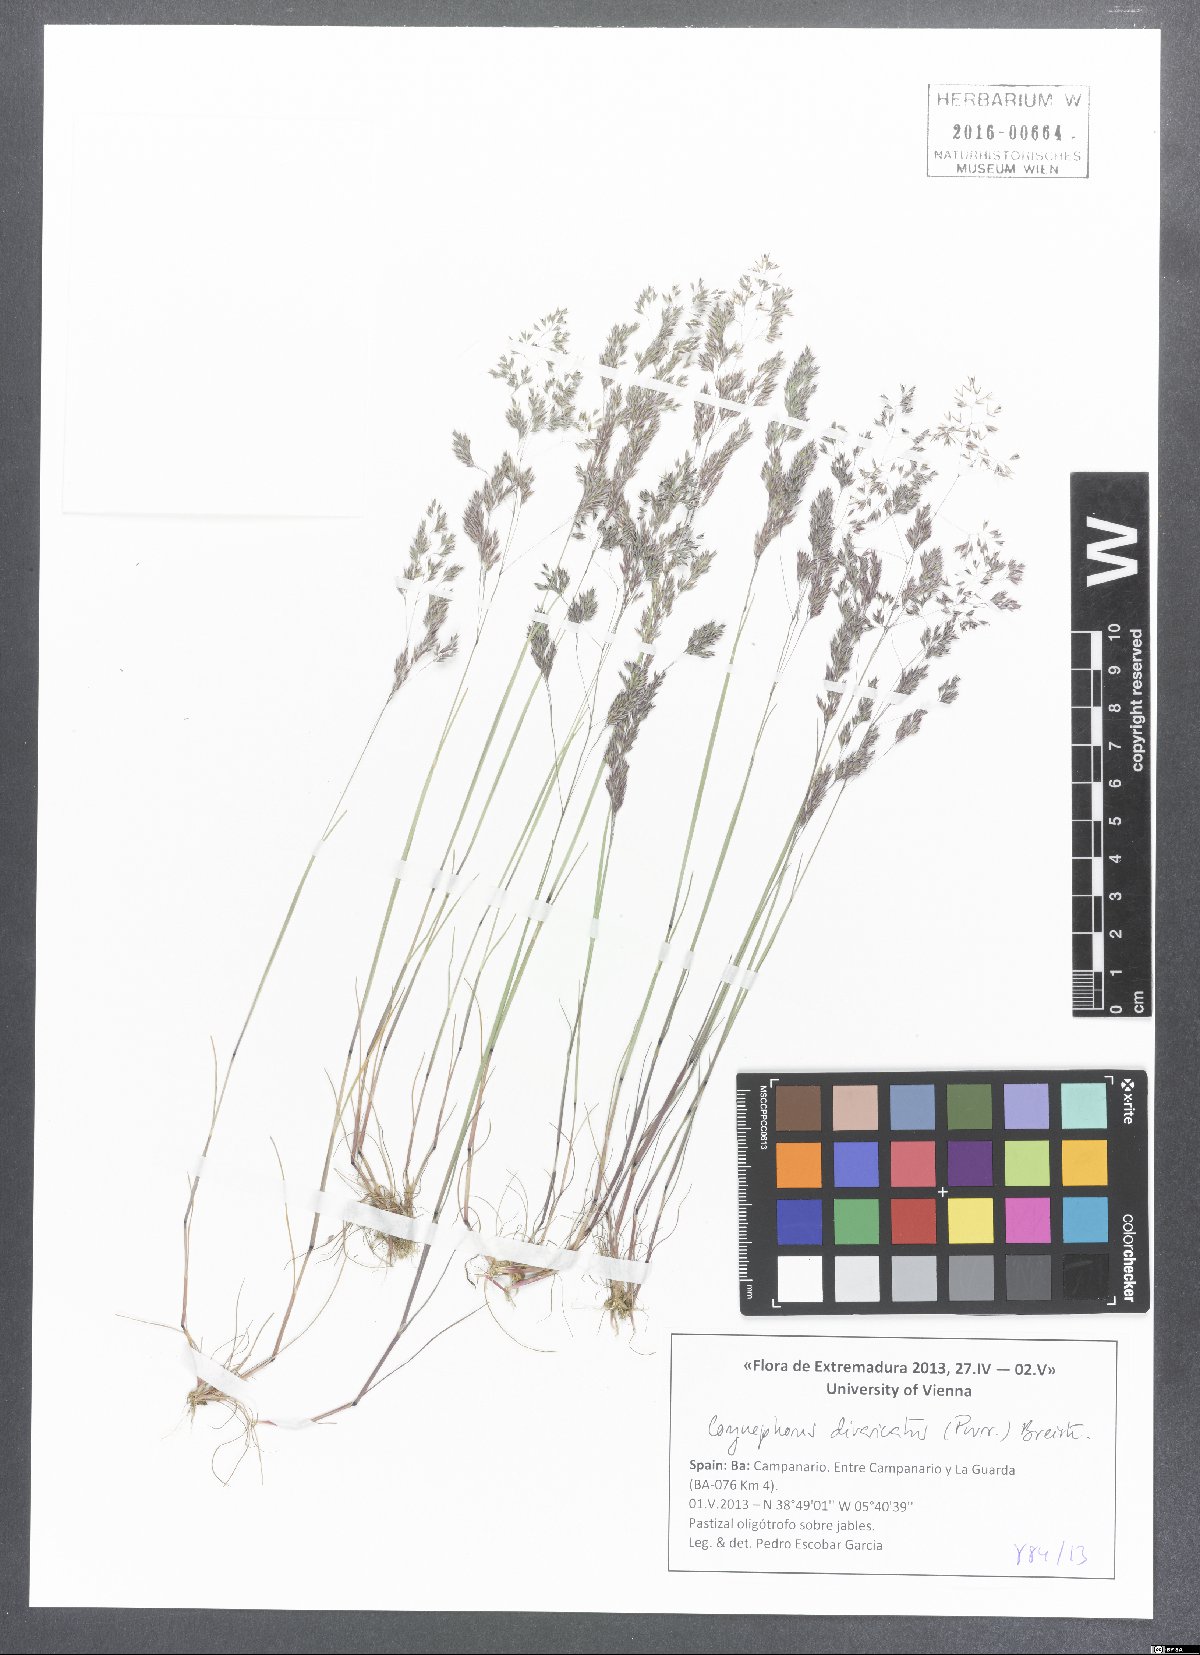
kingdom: Plantae
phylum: Tracheophyta
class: Liliopsida
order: Poales
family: Poaceae
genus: Corynephorus
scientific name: Corynephorus divaricatus
